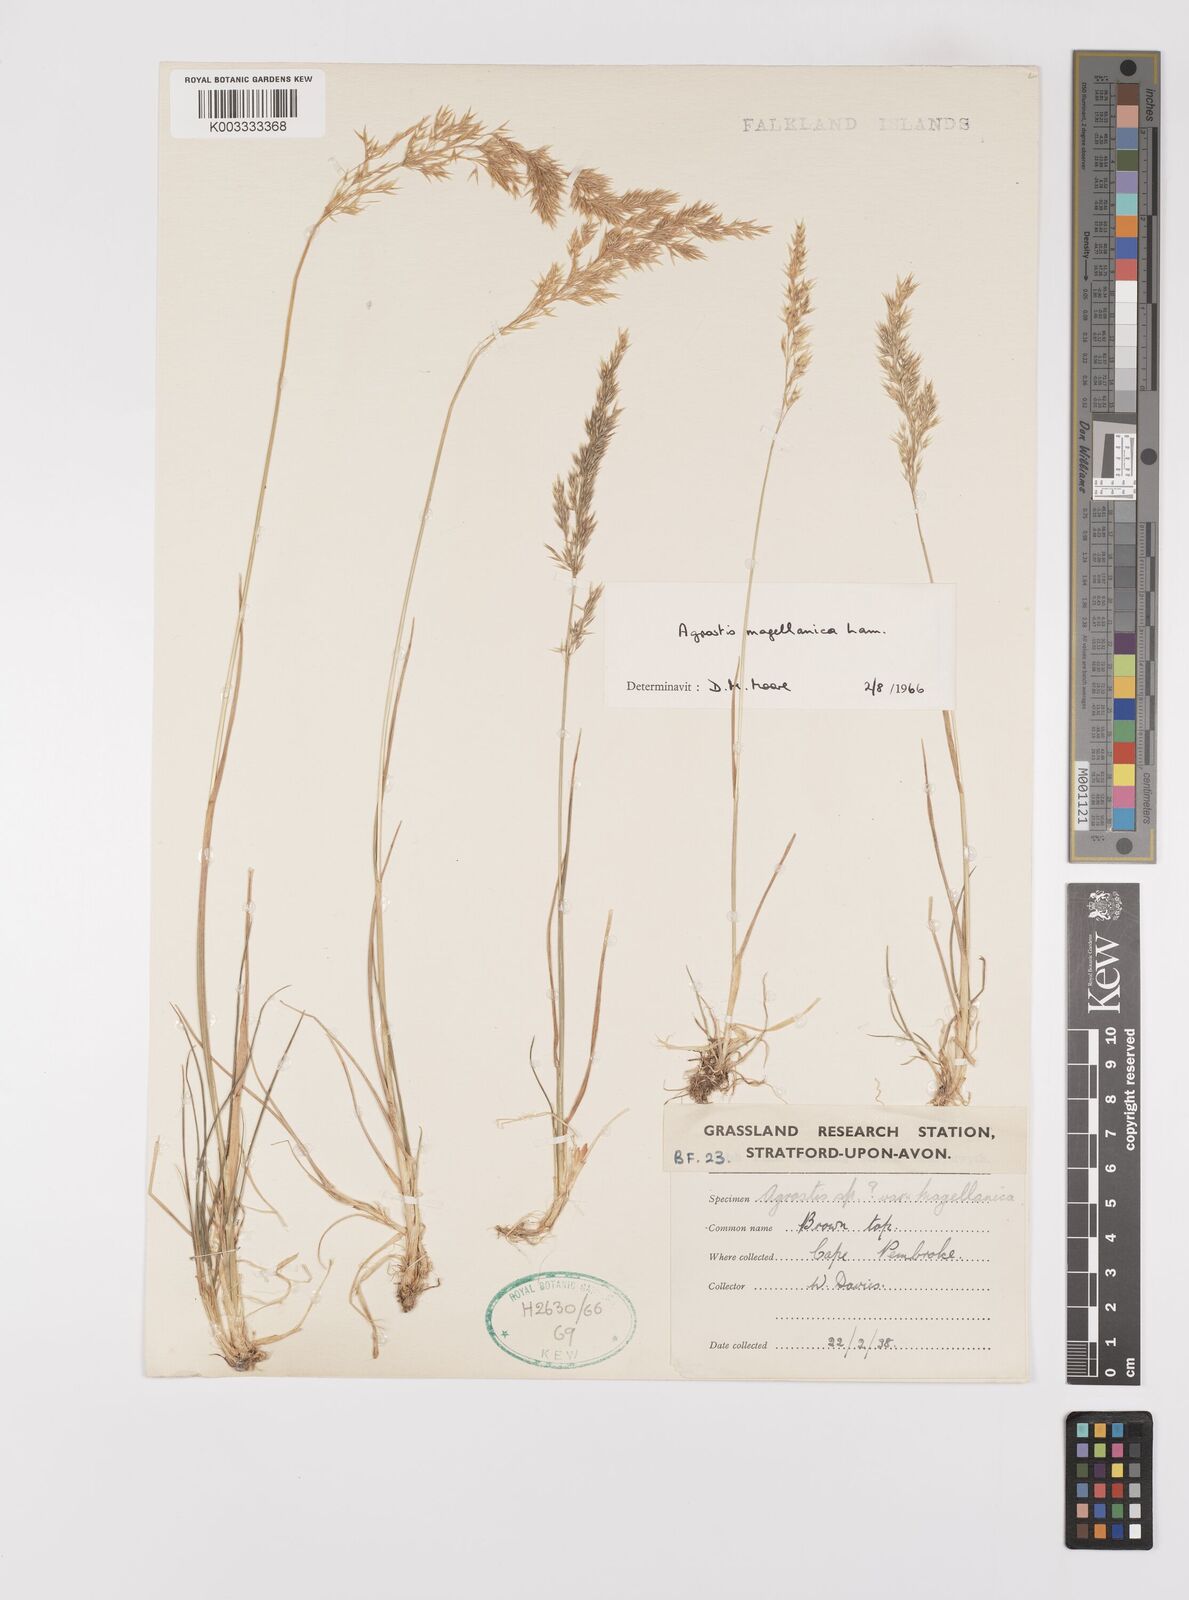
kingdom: Plantae
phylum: Tracheophyta
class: Liliopsida
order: Poales
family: Poaceae
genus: Polypogon
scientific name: Polypogon magellanicus
